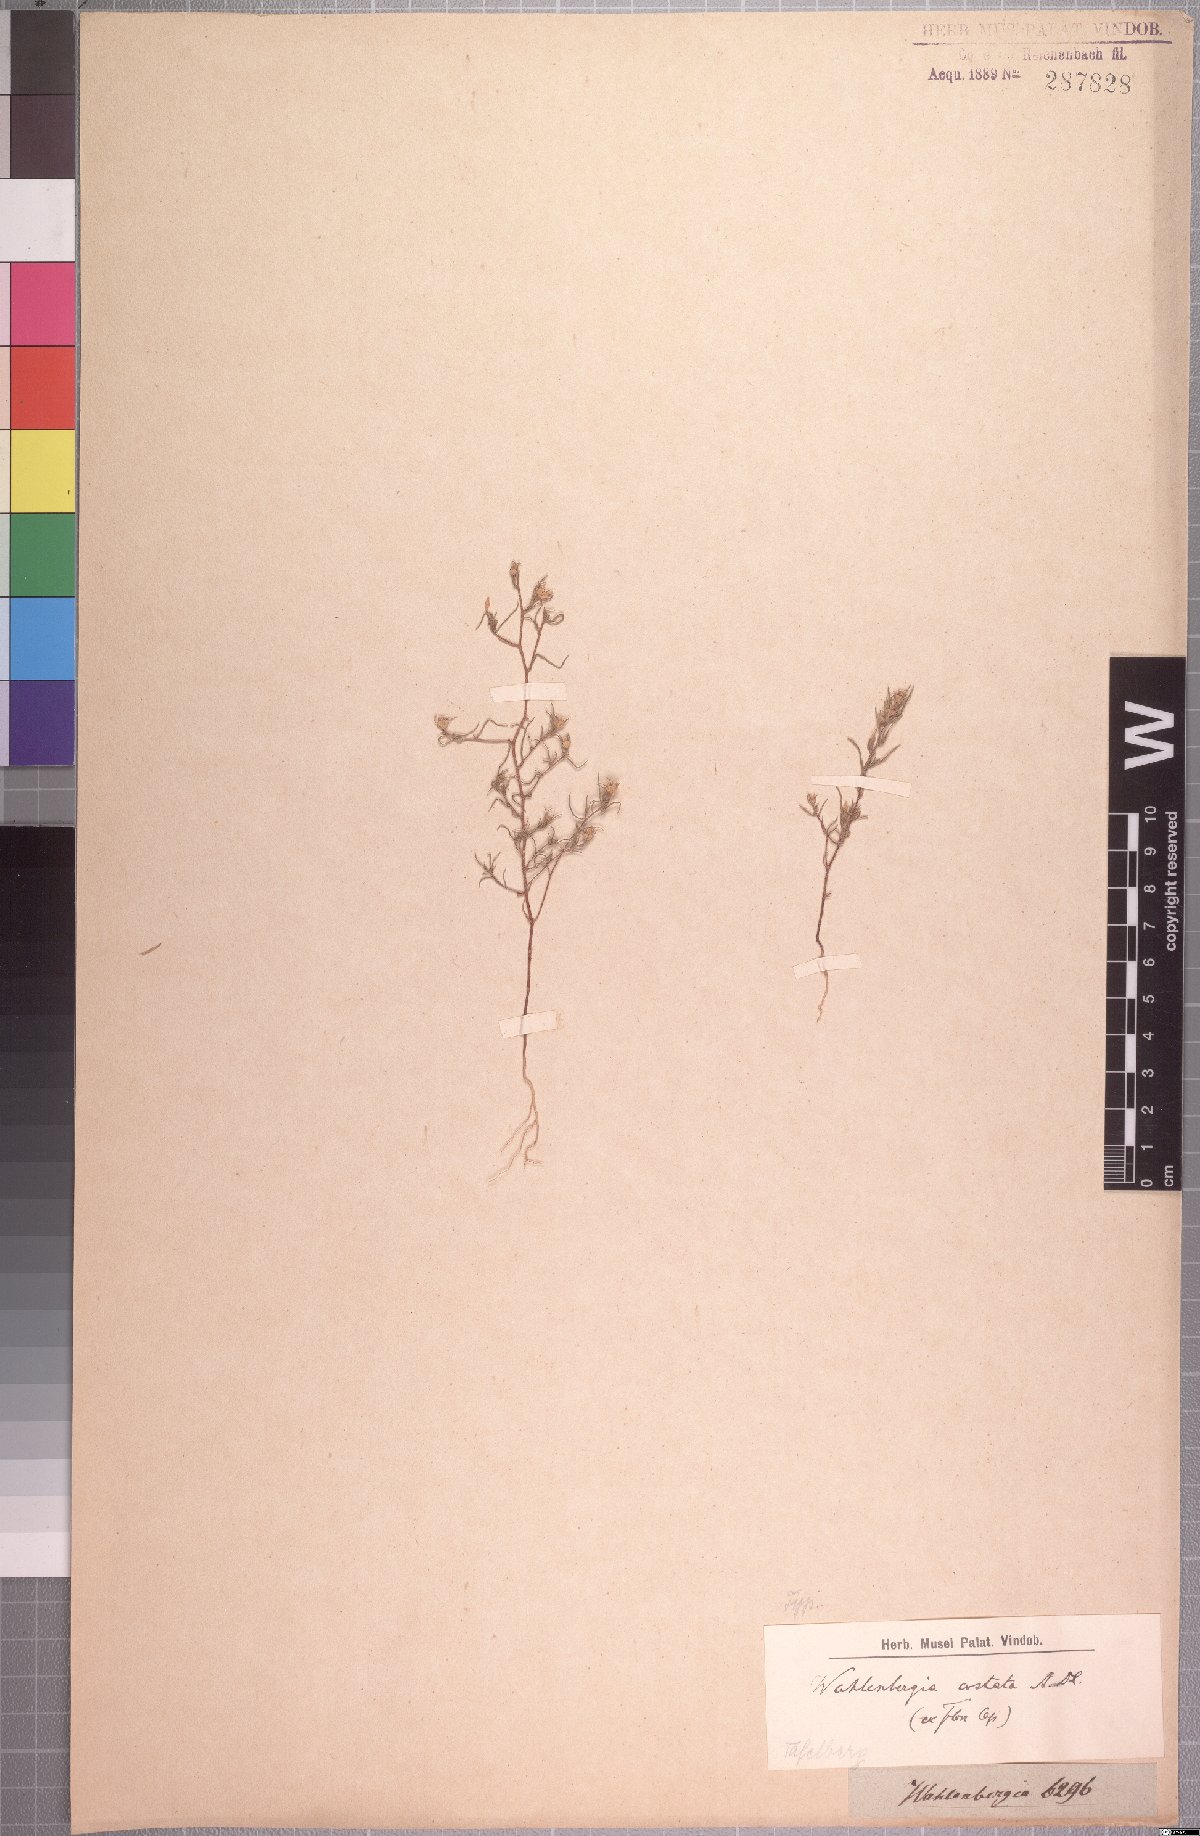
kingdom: Plantae
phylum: Tracheophyta
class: Magnoliopsida
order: Asterales
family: Campanulaceae
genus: Wahlenbergia
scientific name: Wahlenbergia costata
